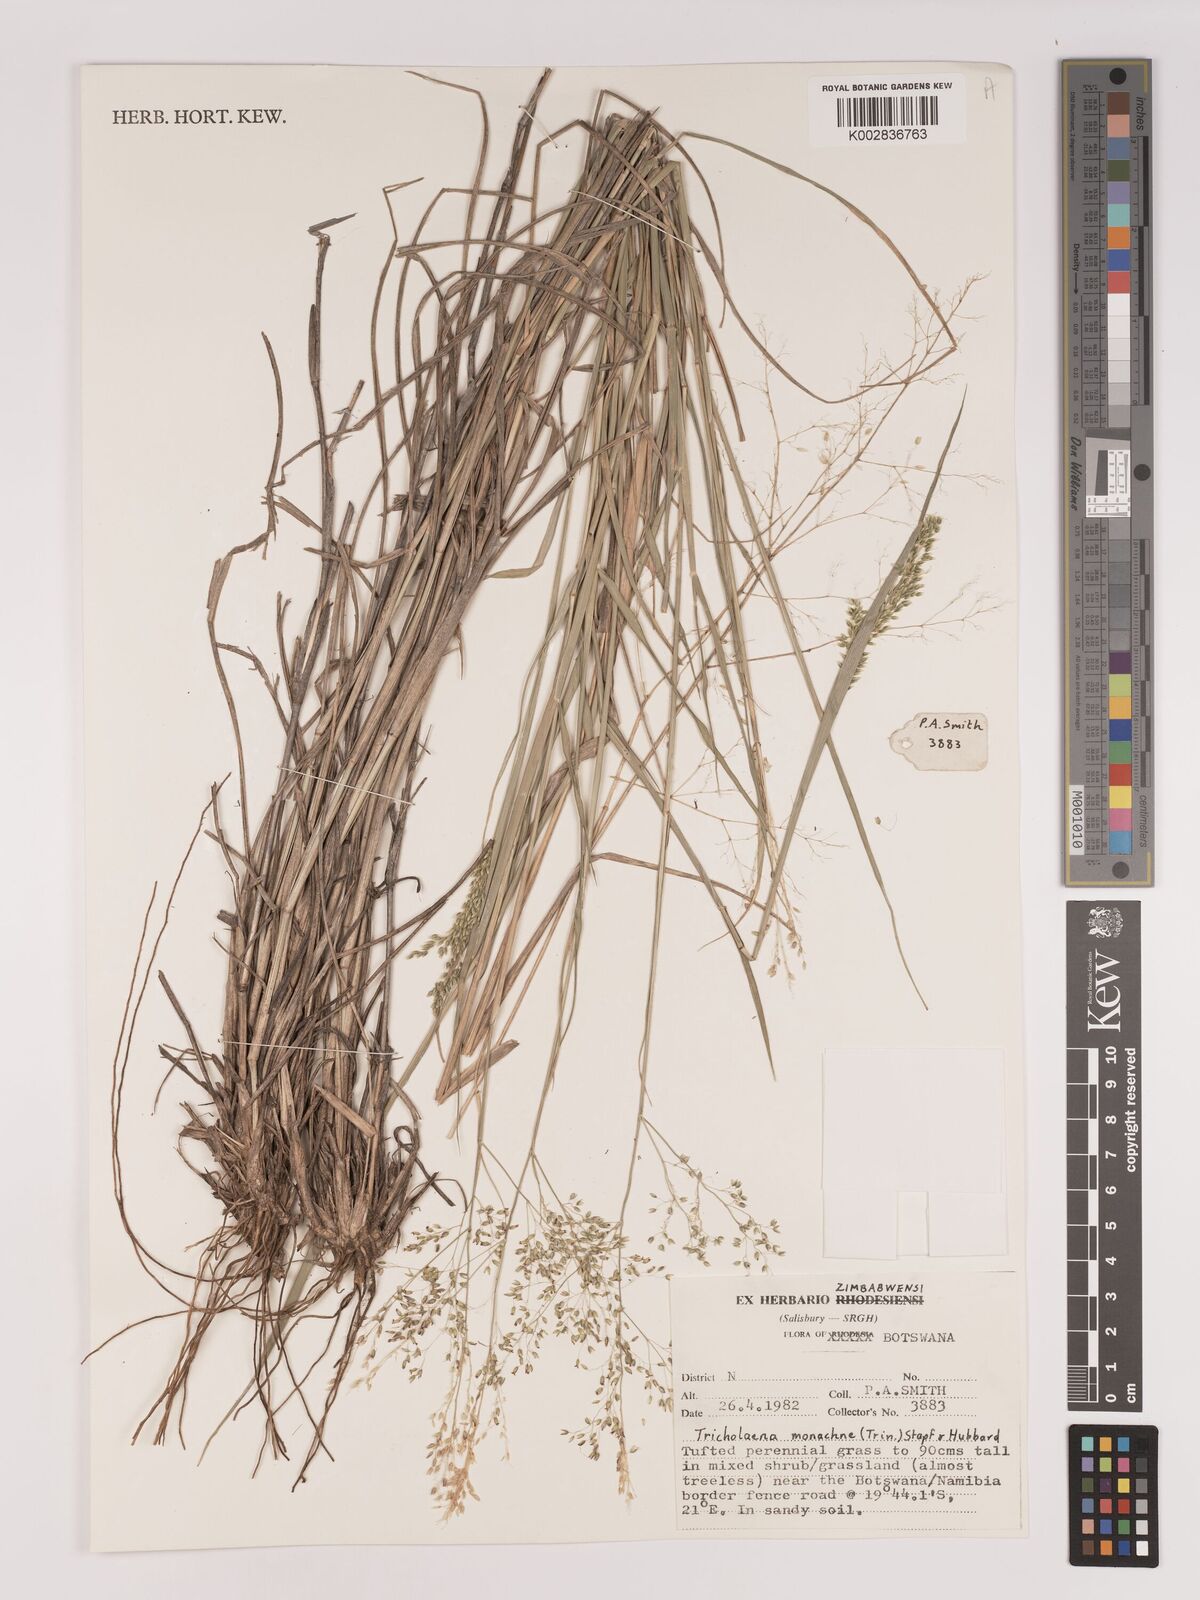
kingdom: Plantae
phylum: Tracheophyta
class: Liliopsida
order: Poales
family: Poaceae
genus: Tricholaena
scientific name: Tricholaena monachne
